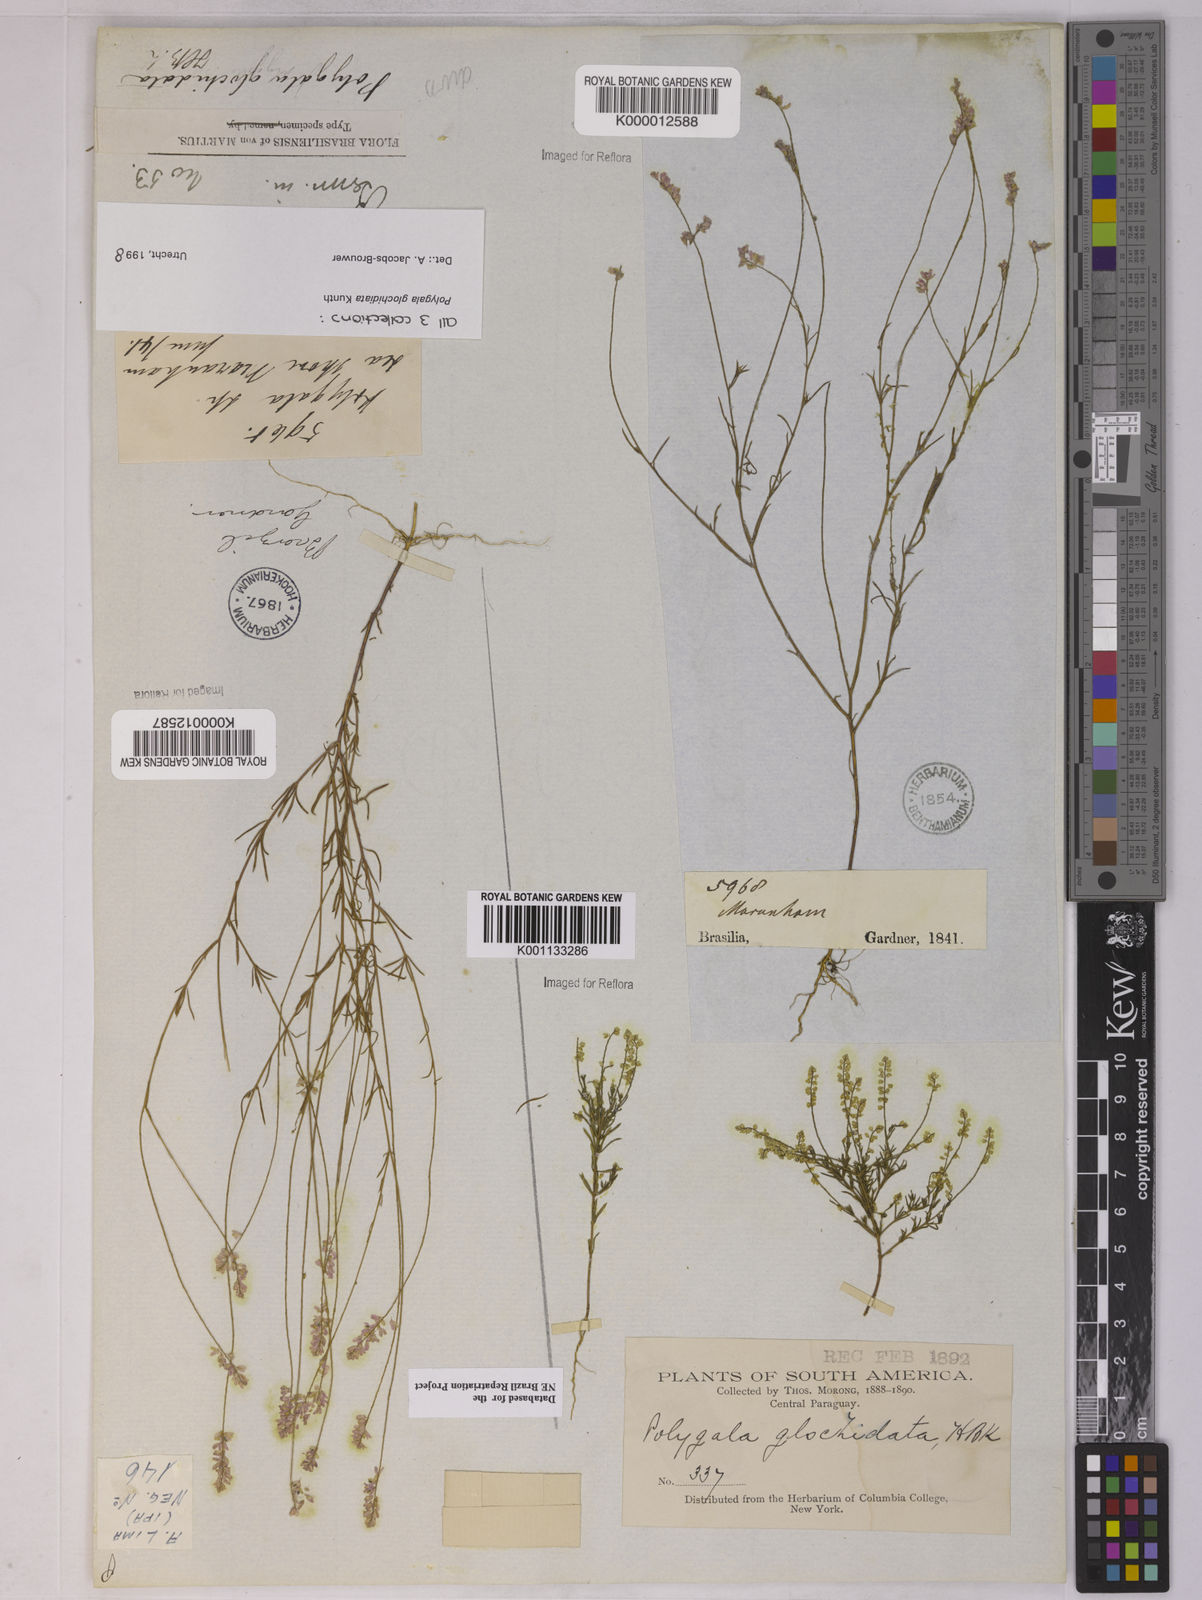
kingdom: Plantae
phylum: Tracheophyta
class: Magnoliopsida
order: Fabales
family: Polygalaceae
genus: Polygala
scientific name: Polygala glochidiata
